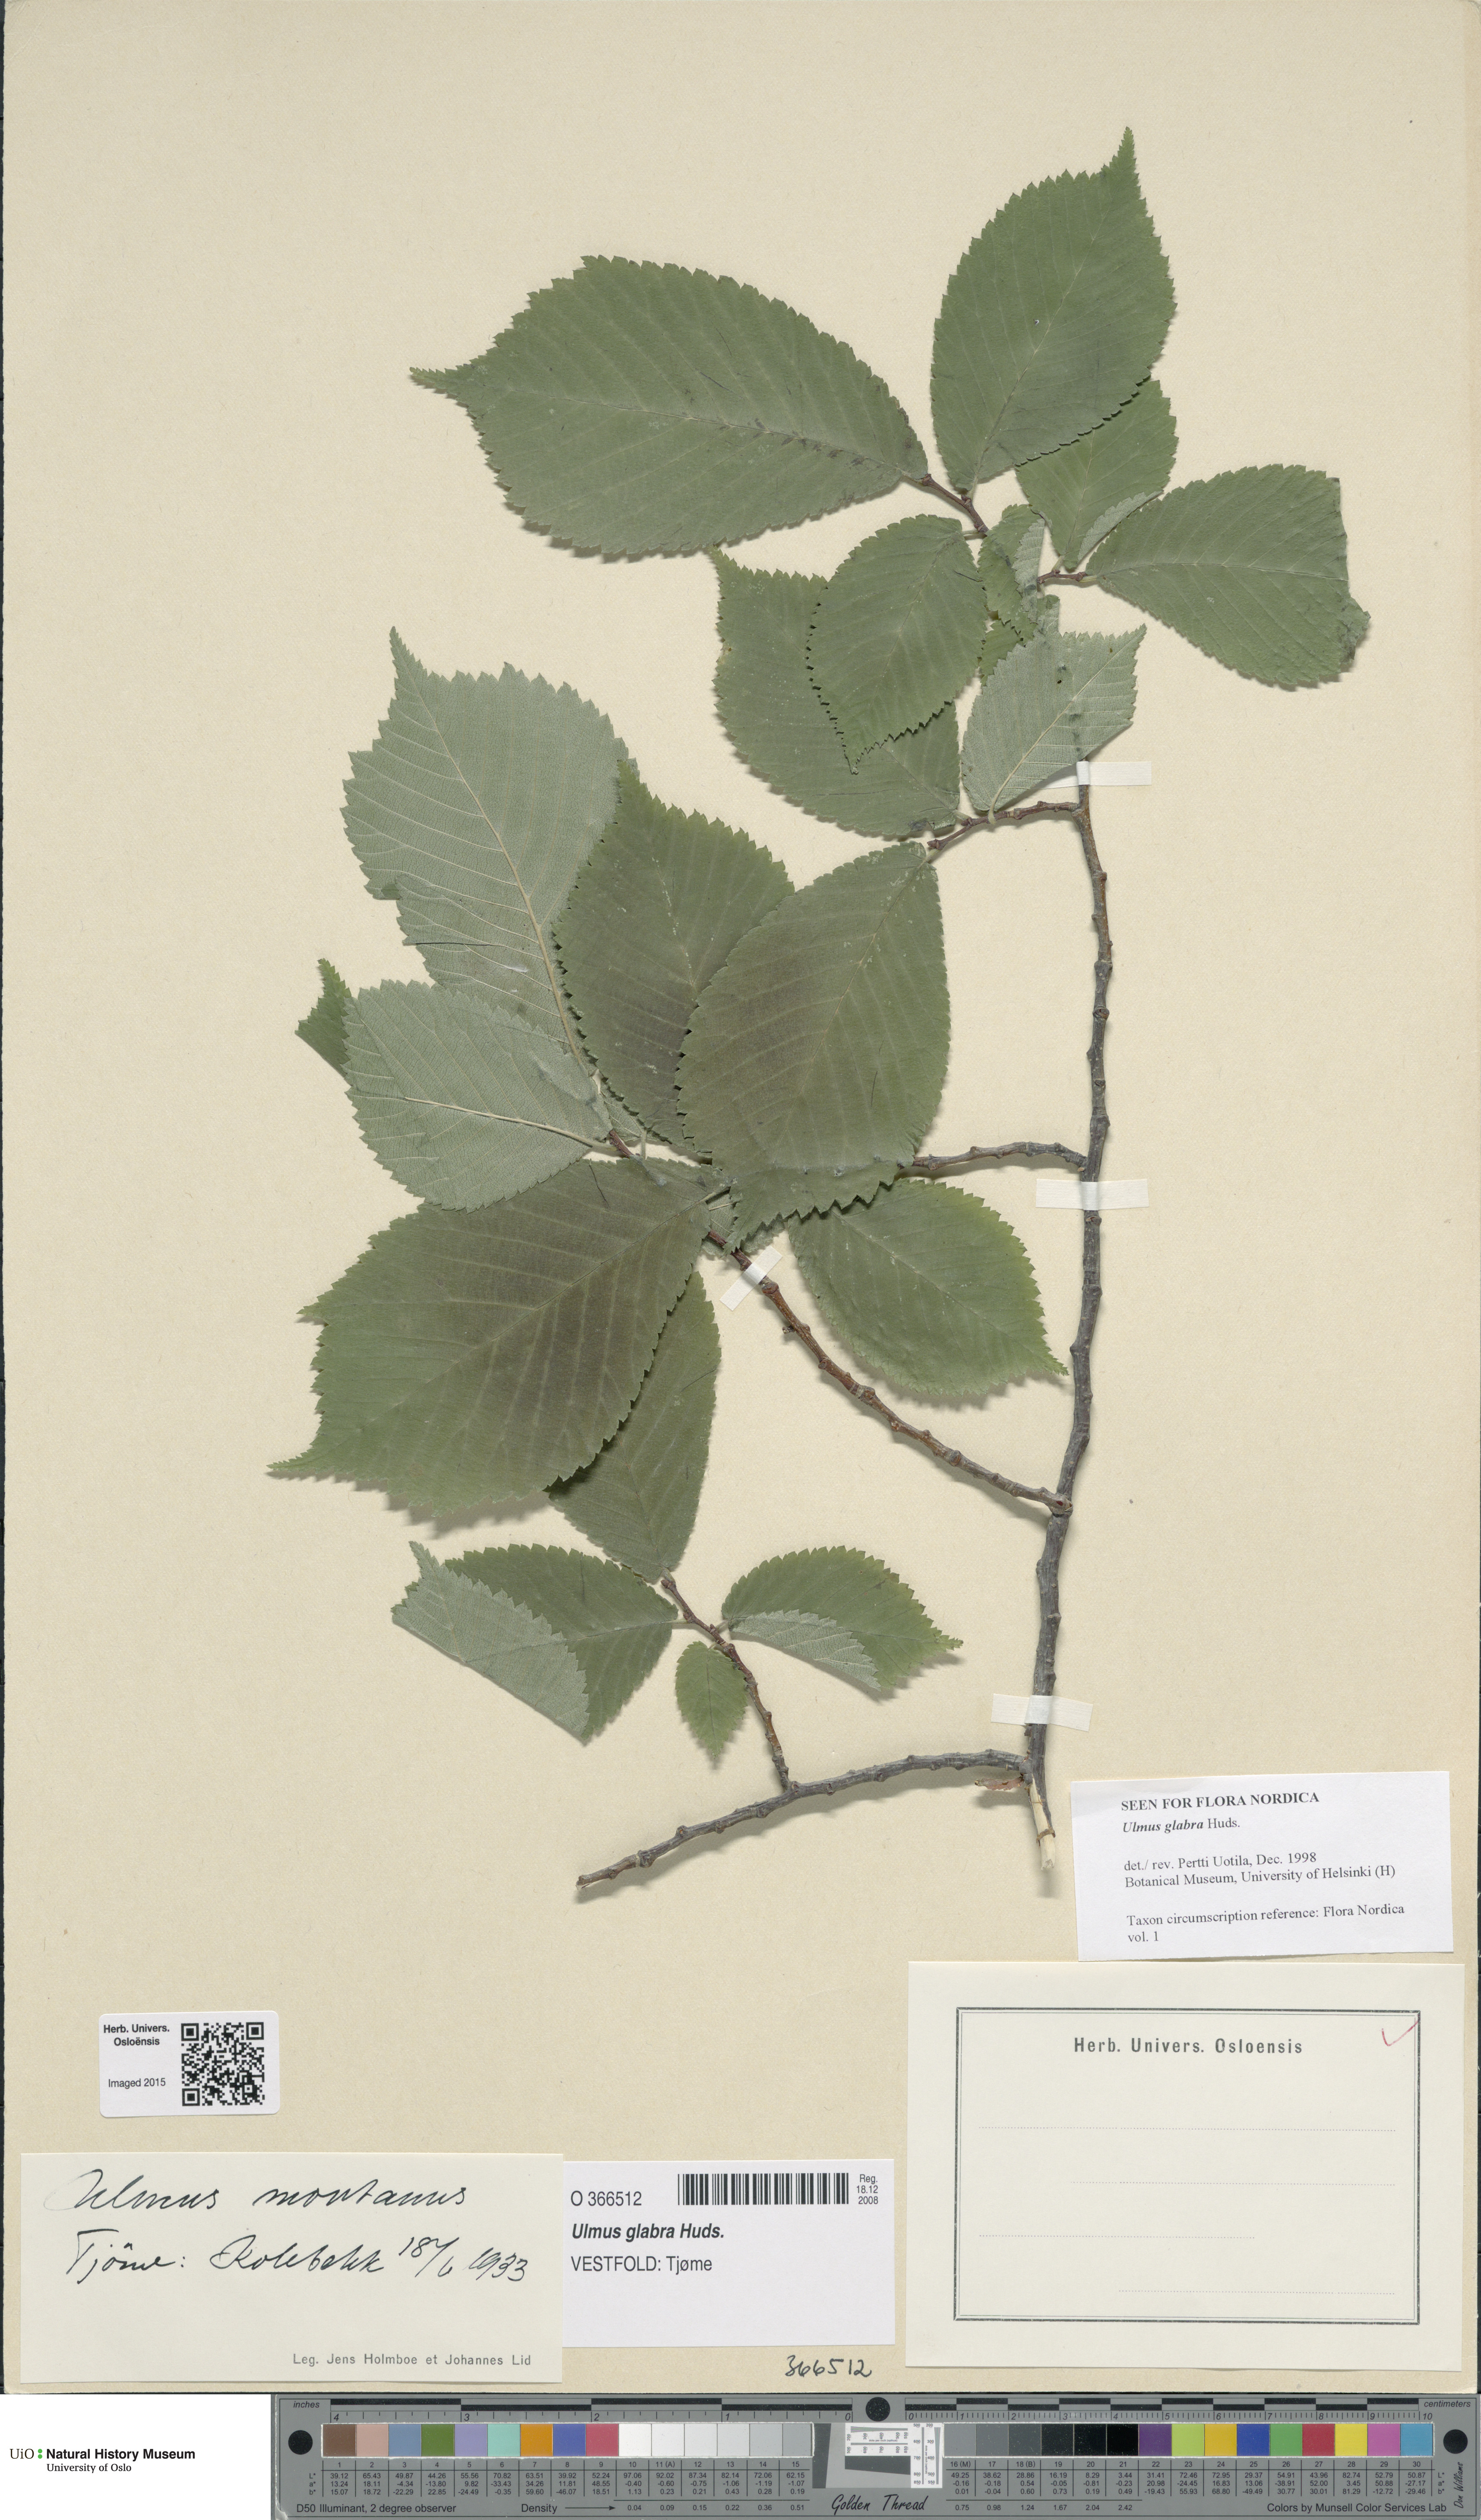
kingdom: Plantae
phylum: Tracheophyta
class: Magnoliopsida
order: Rosales
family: Ulmaceae
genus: Ulmus
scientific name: Ulmus glabra
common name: Wych elm
